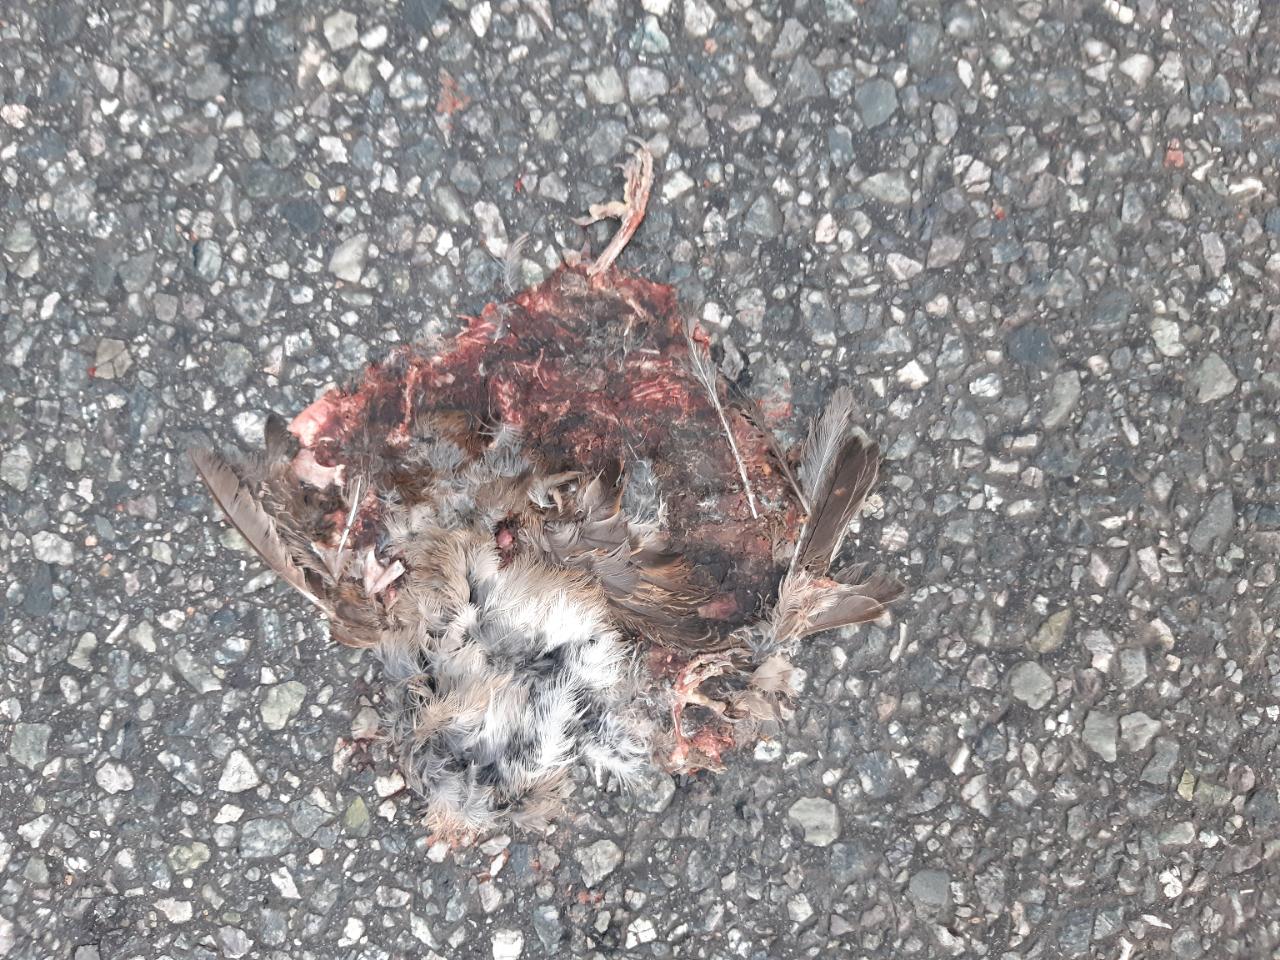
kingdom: Animalia
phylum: Chordata
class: Aves
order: Passeriformes
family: Passeridae
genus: Passer
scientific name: Passer domesticus
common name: House sparrow
